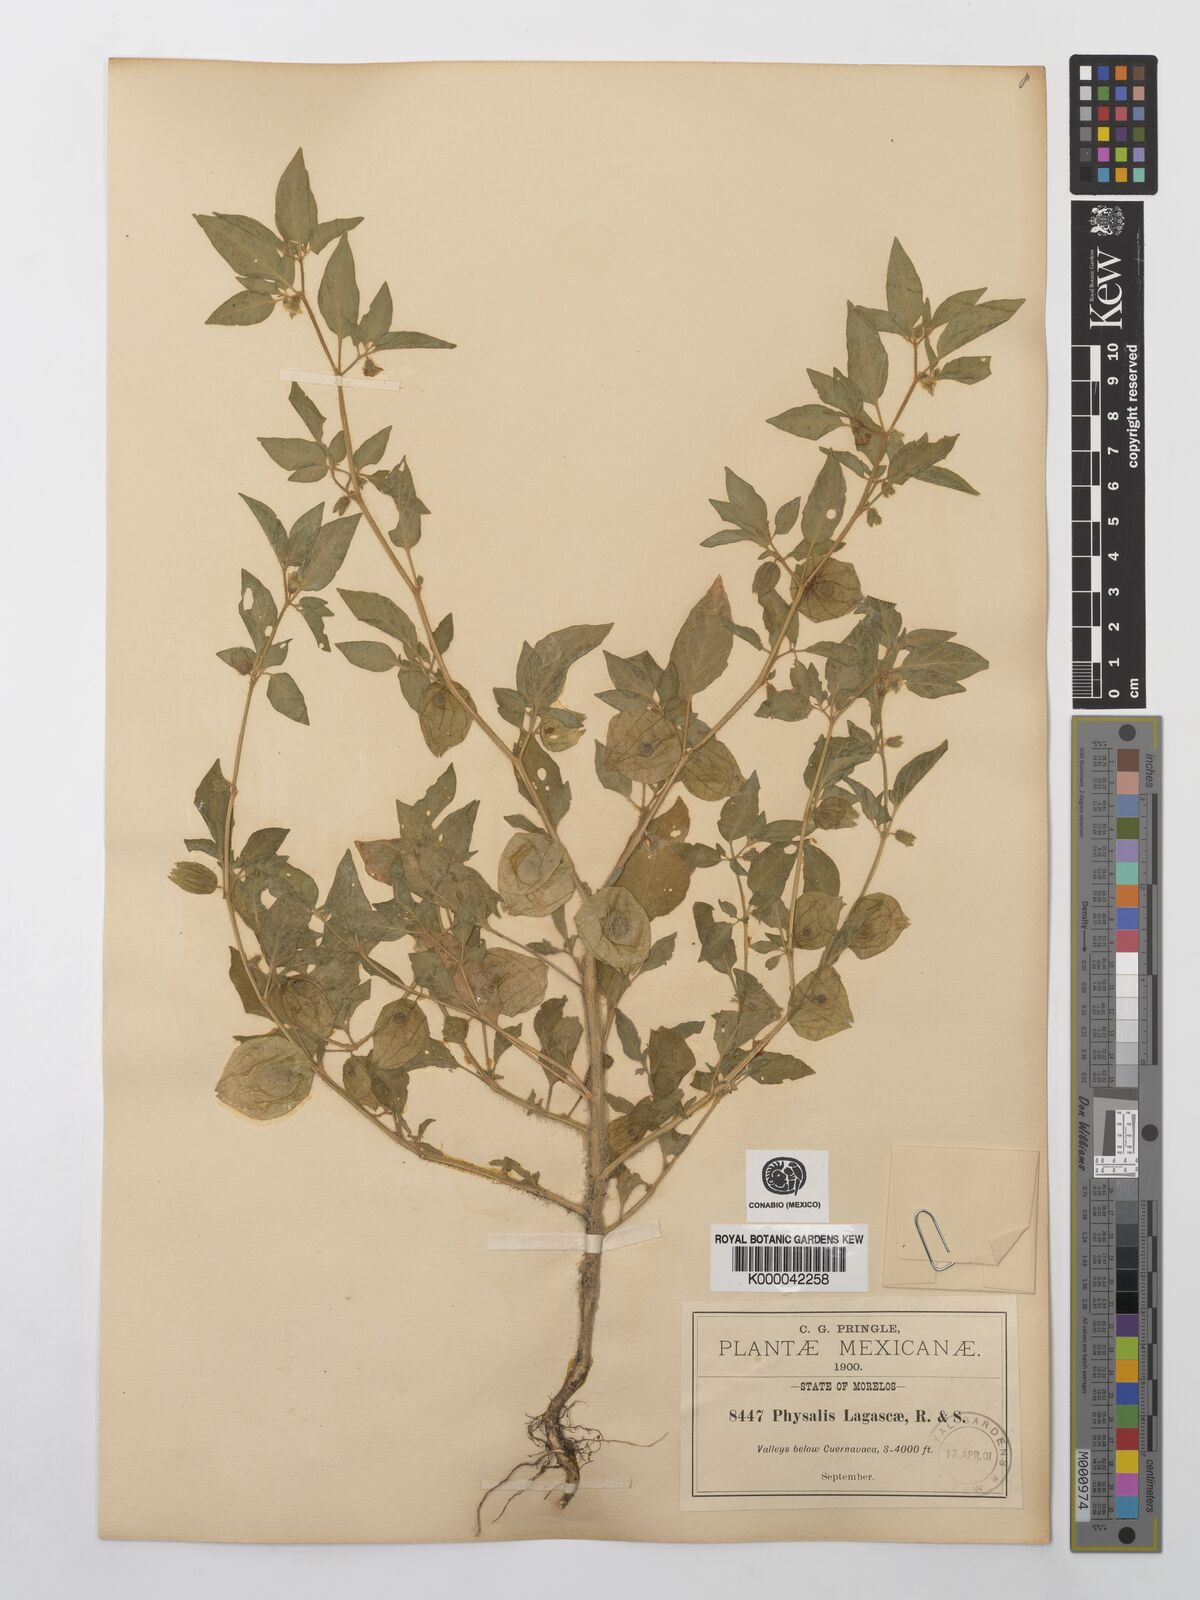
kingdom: Plantae
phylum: Tracheophyta
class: Magnoliopsida
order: Solanales
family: Solanaceae
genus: Physalis
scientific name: Physalis lagascae
